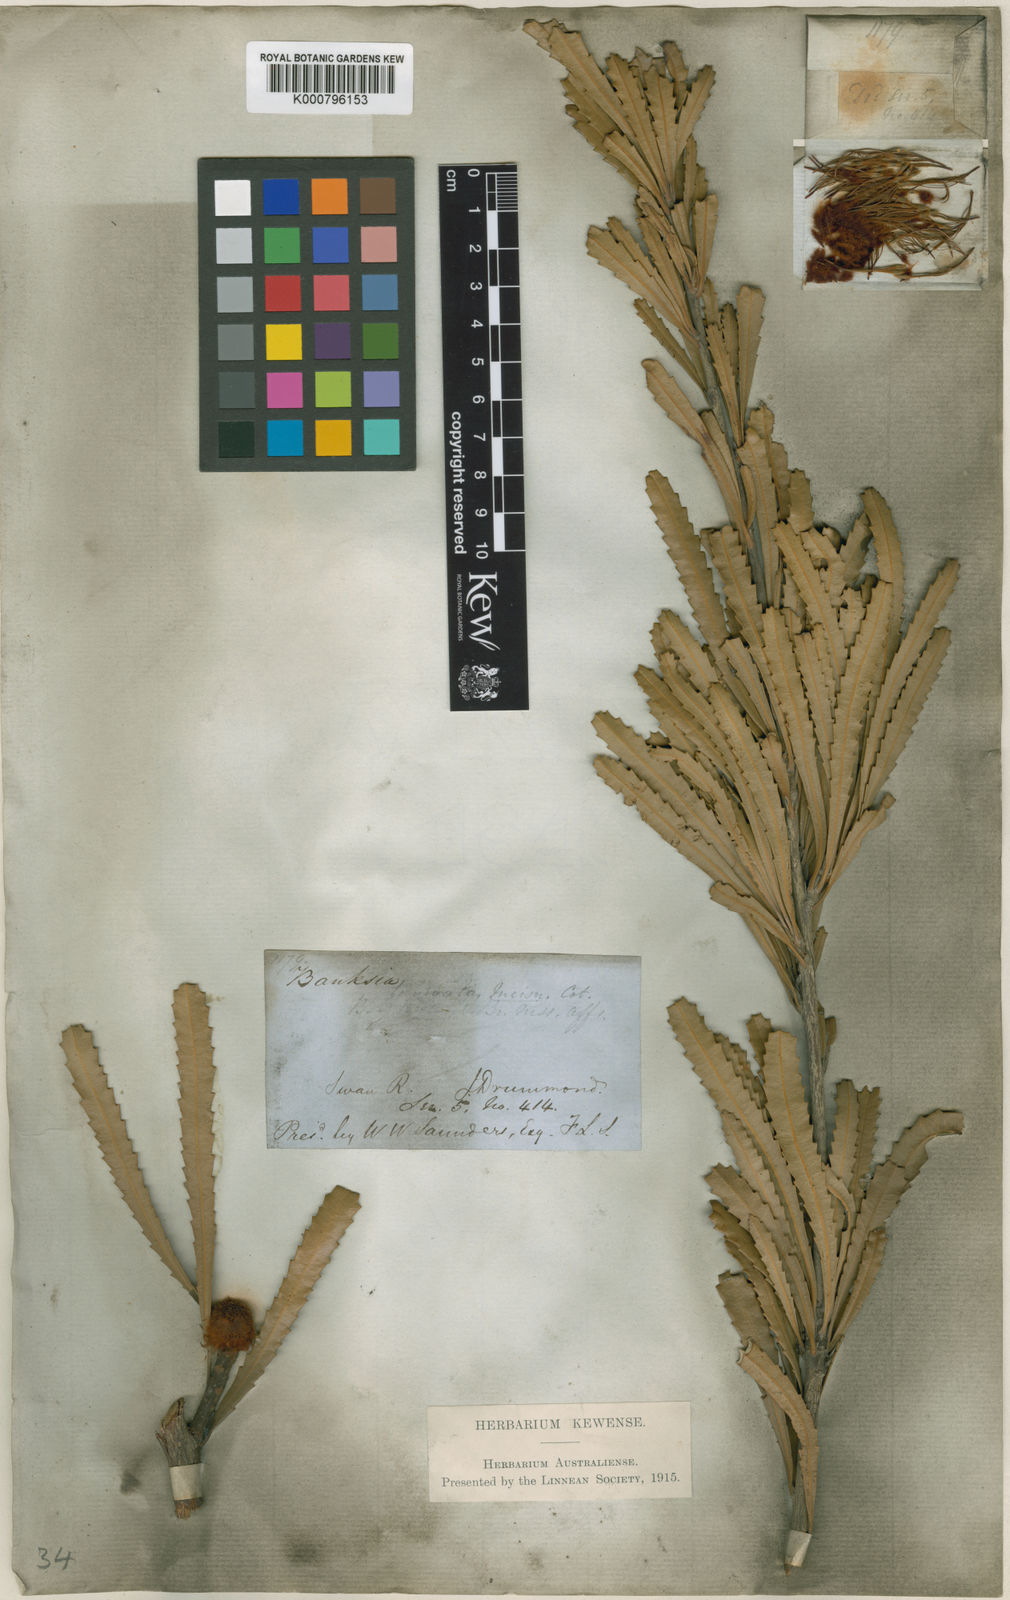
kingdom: Plantae
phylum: Tracheophyta
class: Magnoliopsida
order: Proteales
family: Proteaceae
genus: Banksia
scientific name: Banksia laevigata
